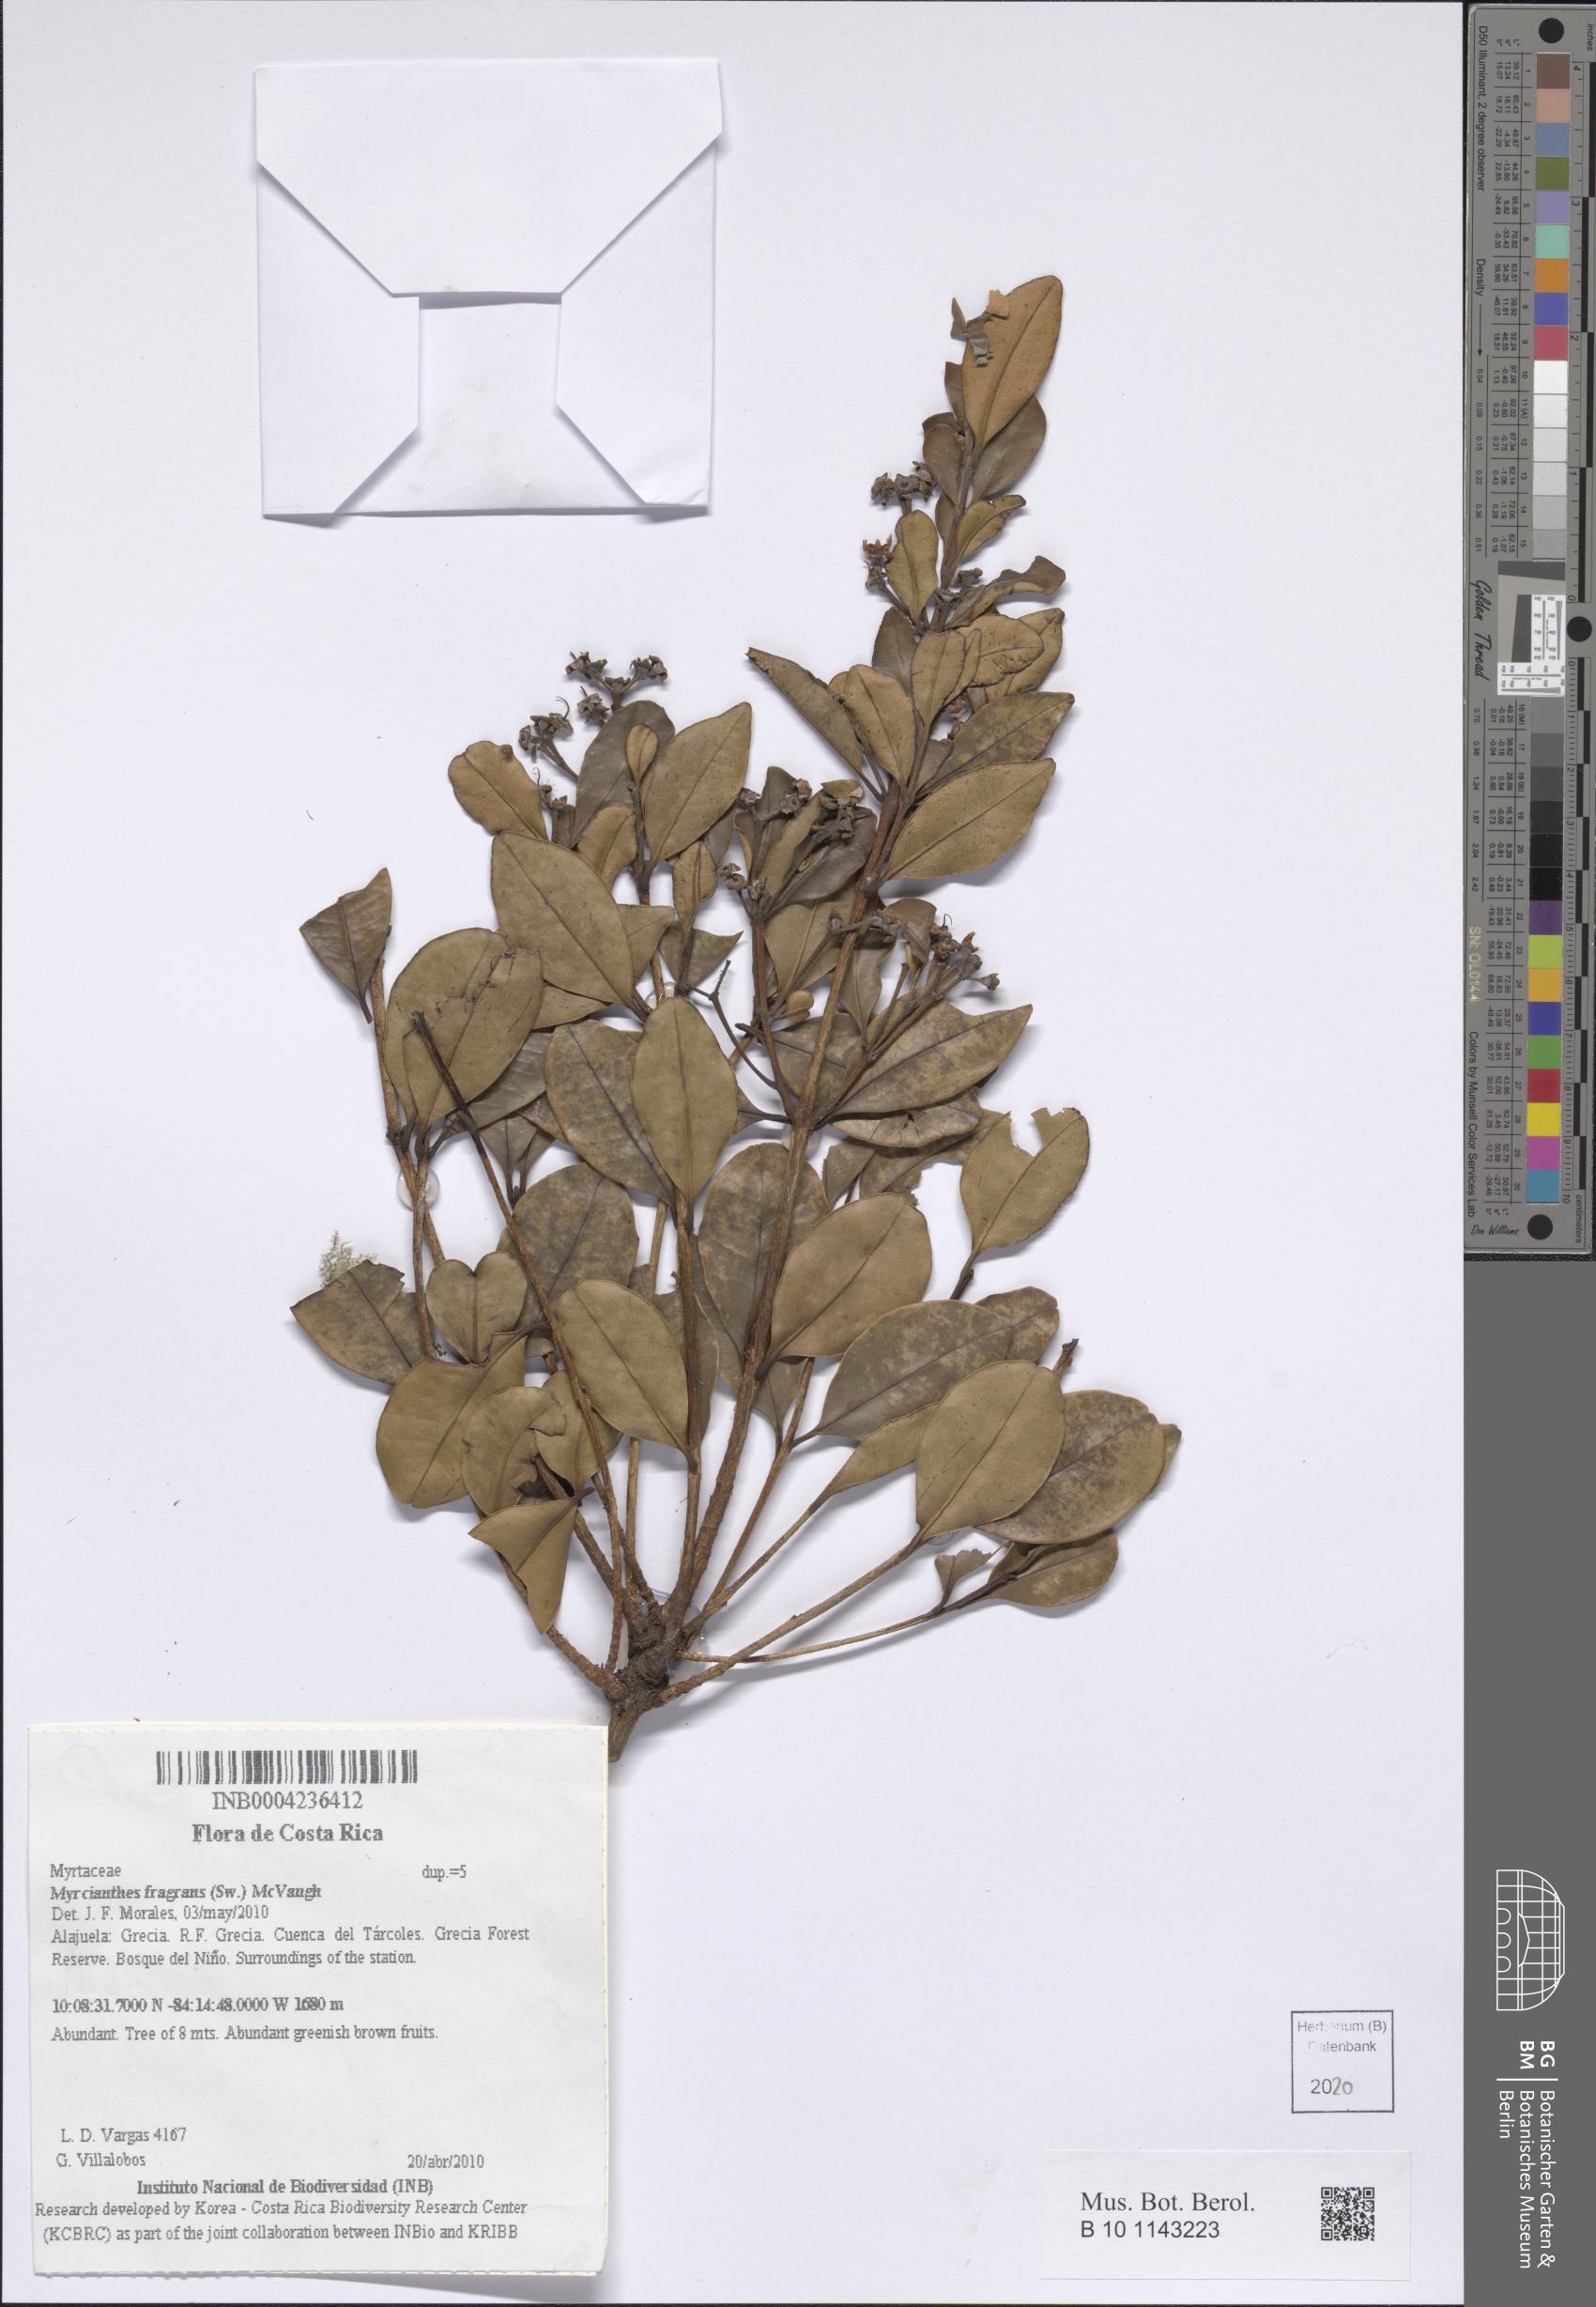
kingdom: Plantae
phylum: Tracheophyta
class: Magnoliopsida
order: Myrtales
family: Myrtaceae
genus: Myrcianthes
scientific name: Myrcianthes fragrans
